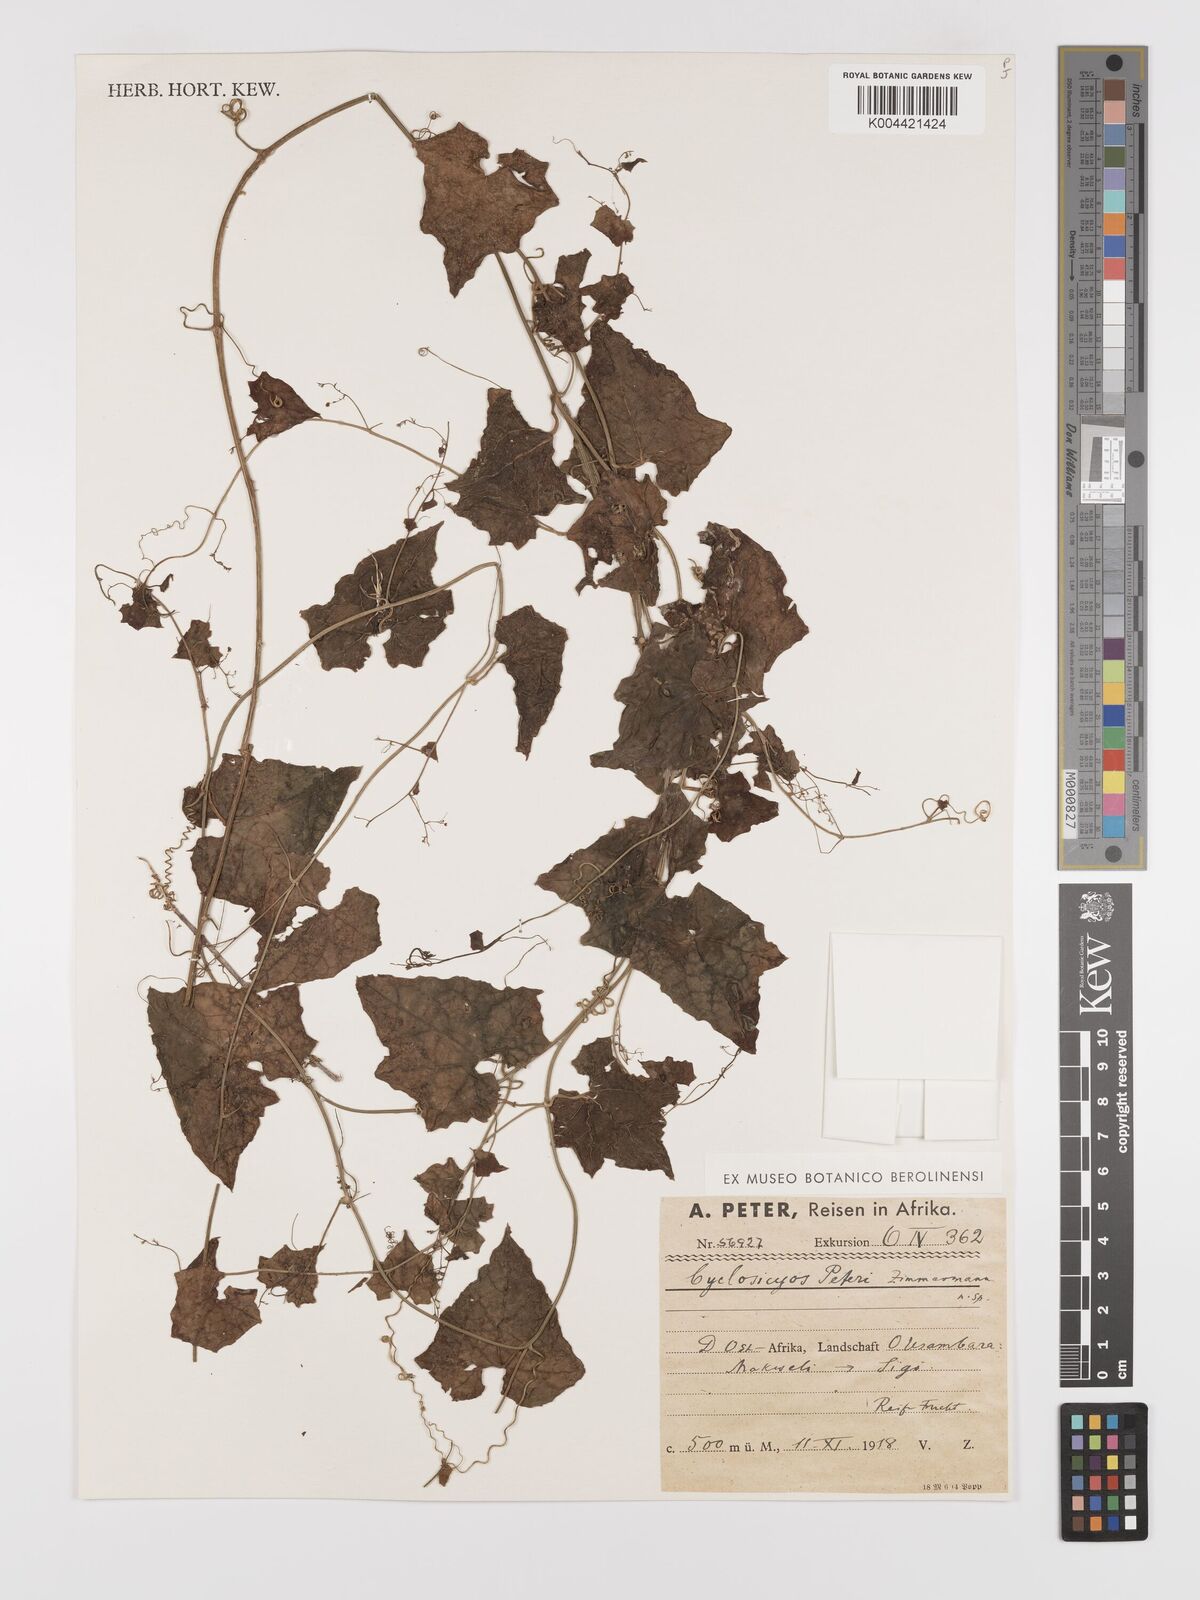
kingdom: Plantae
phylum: Tracheophyta
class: Magnoliopsida
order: Cucurbitales
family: Cucurbitaceae
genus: Cyclantheropsis
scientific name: Cyclantheropsis parviflora
